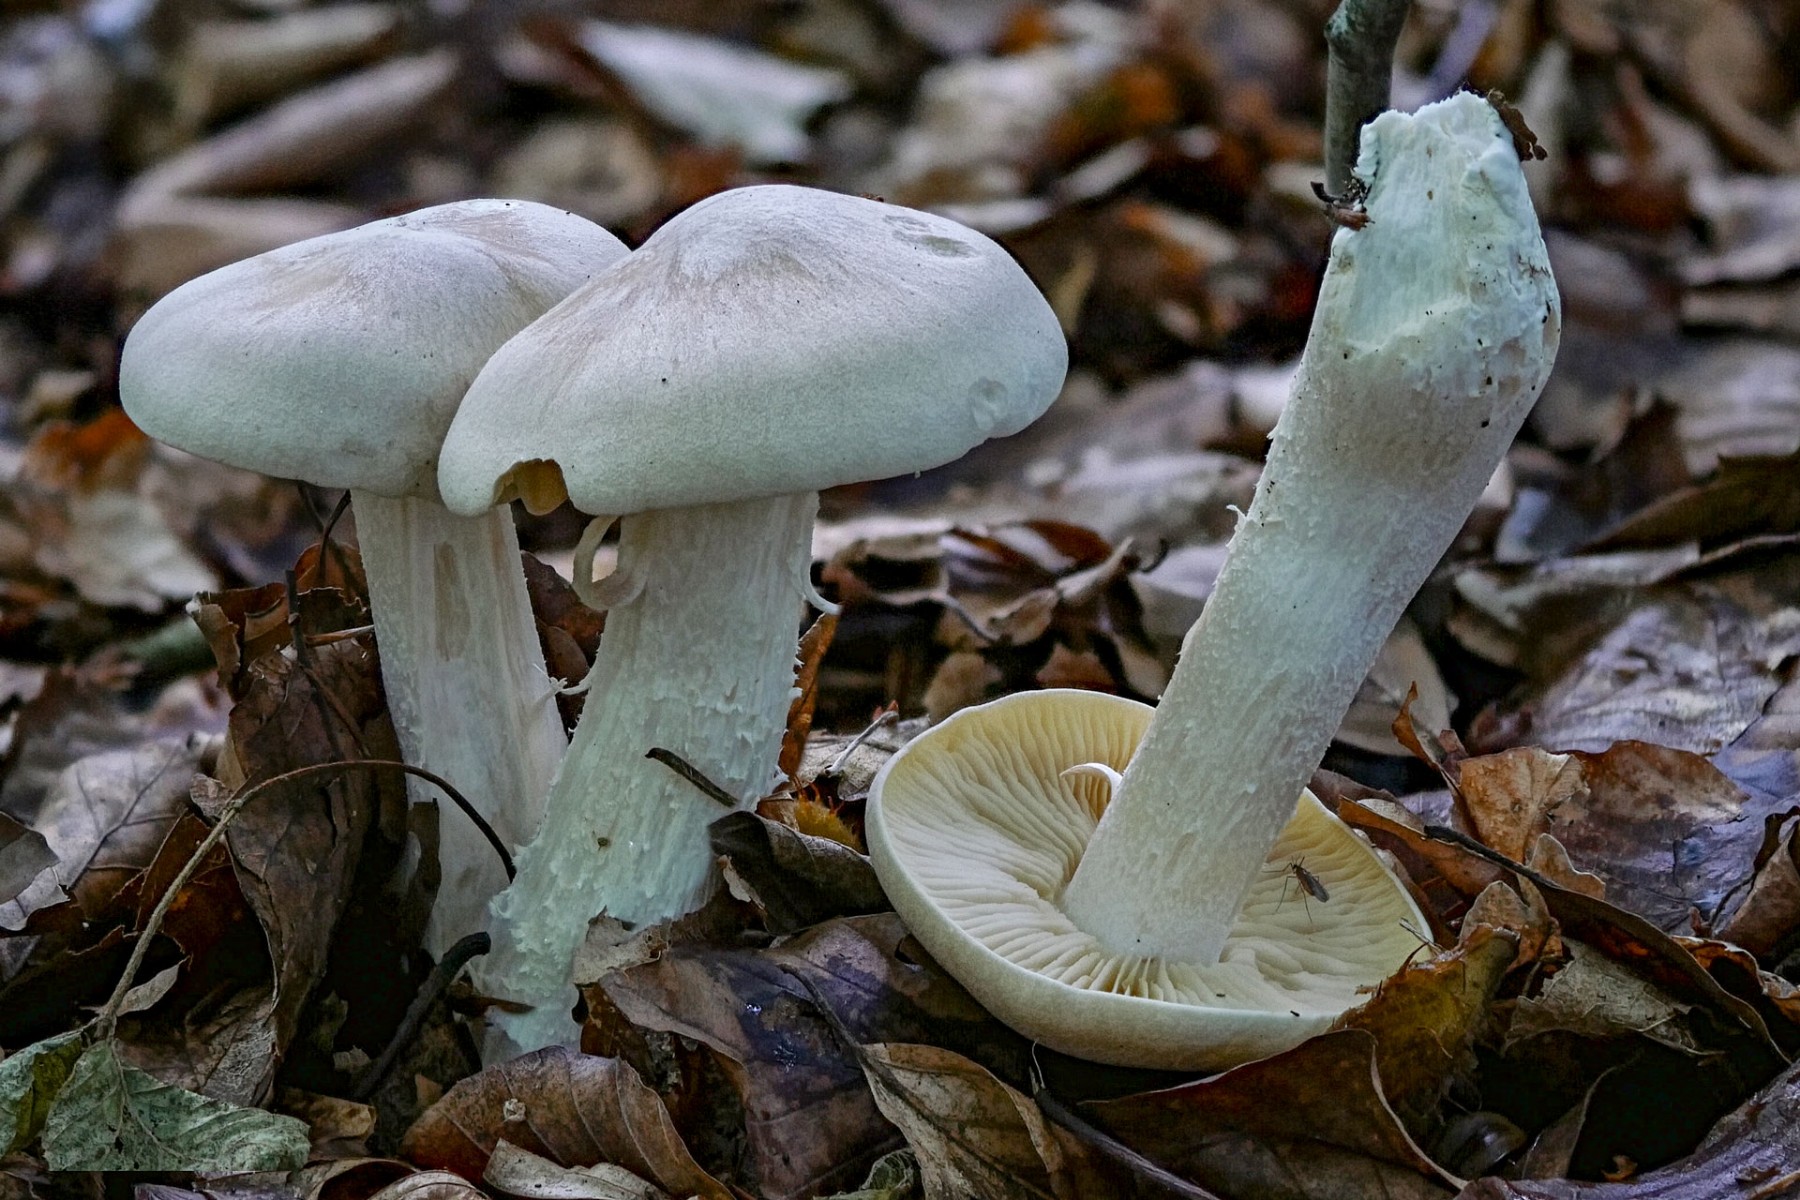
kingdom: Fungi
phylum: Basidiomycota
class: Agaricomycetes
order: Agaricales
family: Entolomataceae
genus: Entoloma
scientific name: Entoloma sinuatum
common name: giftig rødblad
